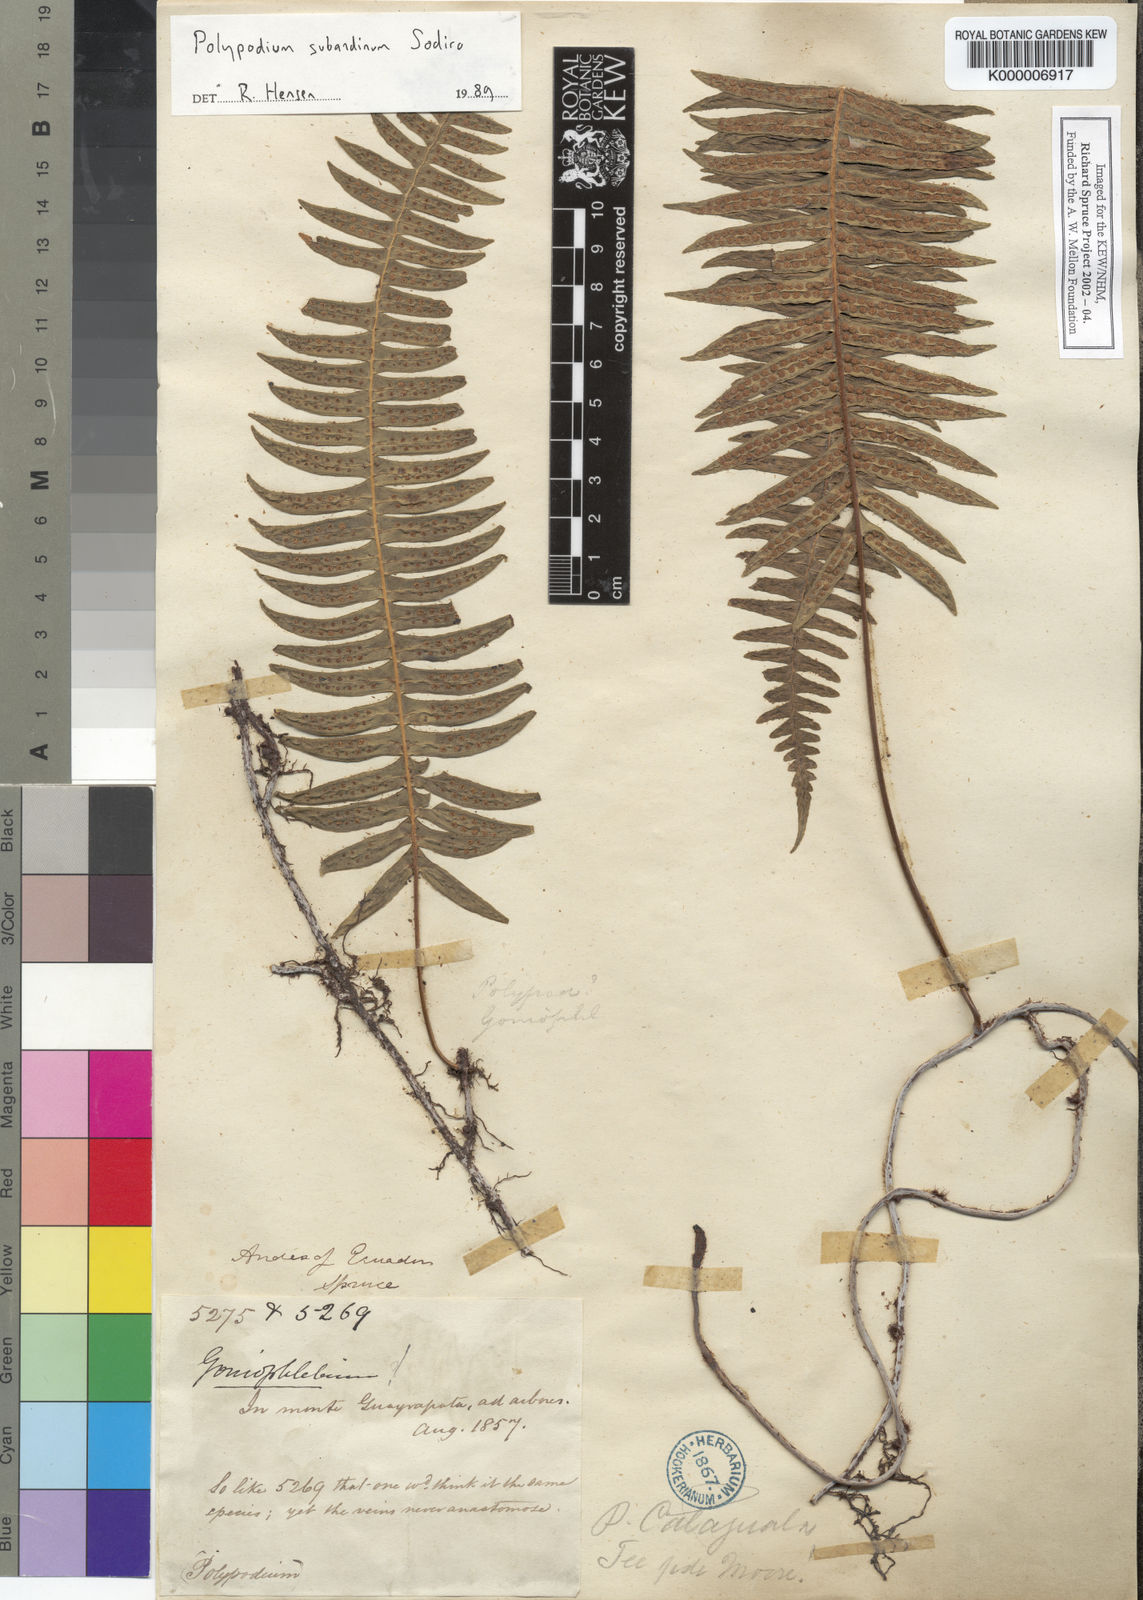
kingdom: Plantae
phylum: Tracheophyta
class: Polypodiopsida
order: Polypodiales
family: Polypodiaceae
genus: Serpocaulon
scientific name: Serpocaulon subandinum
